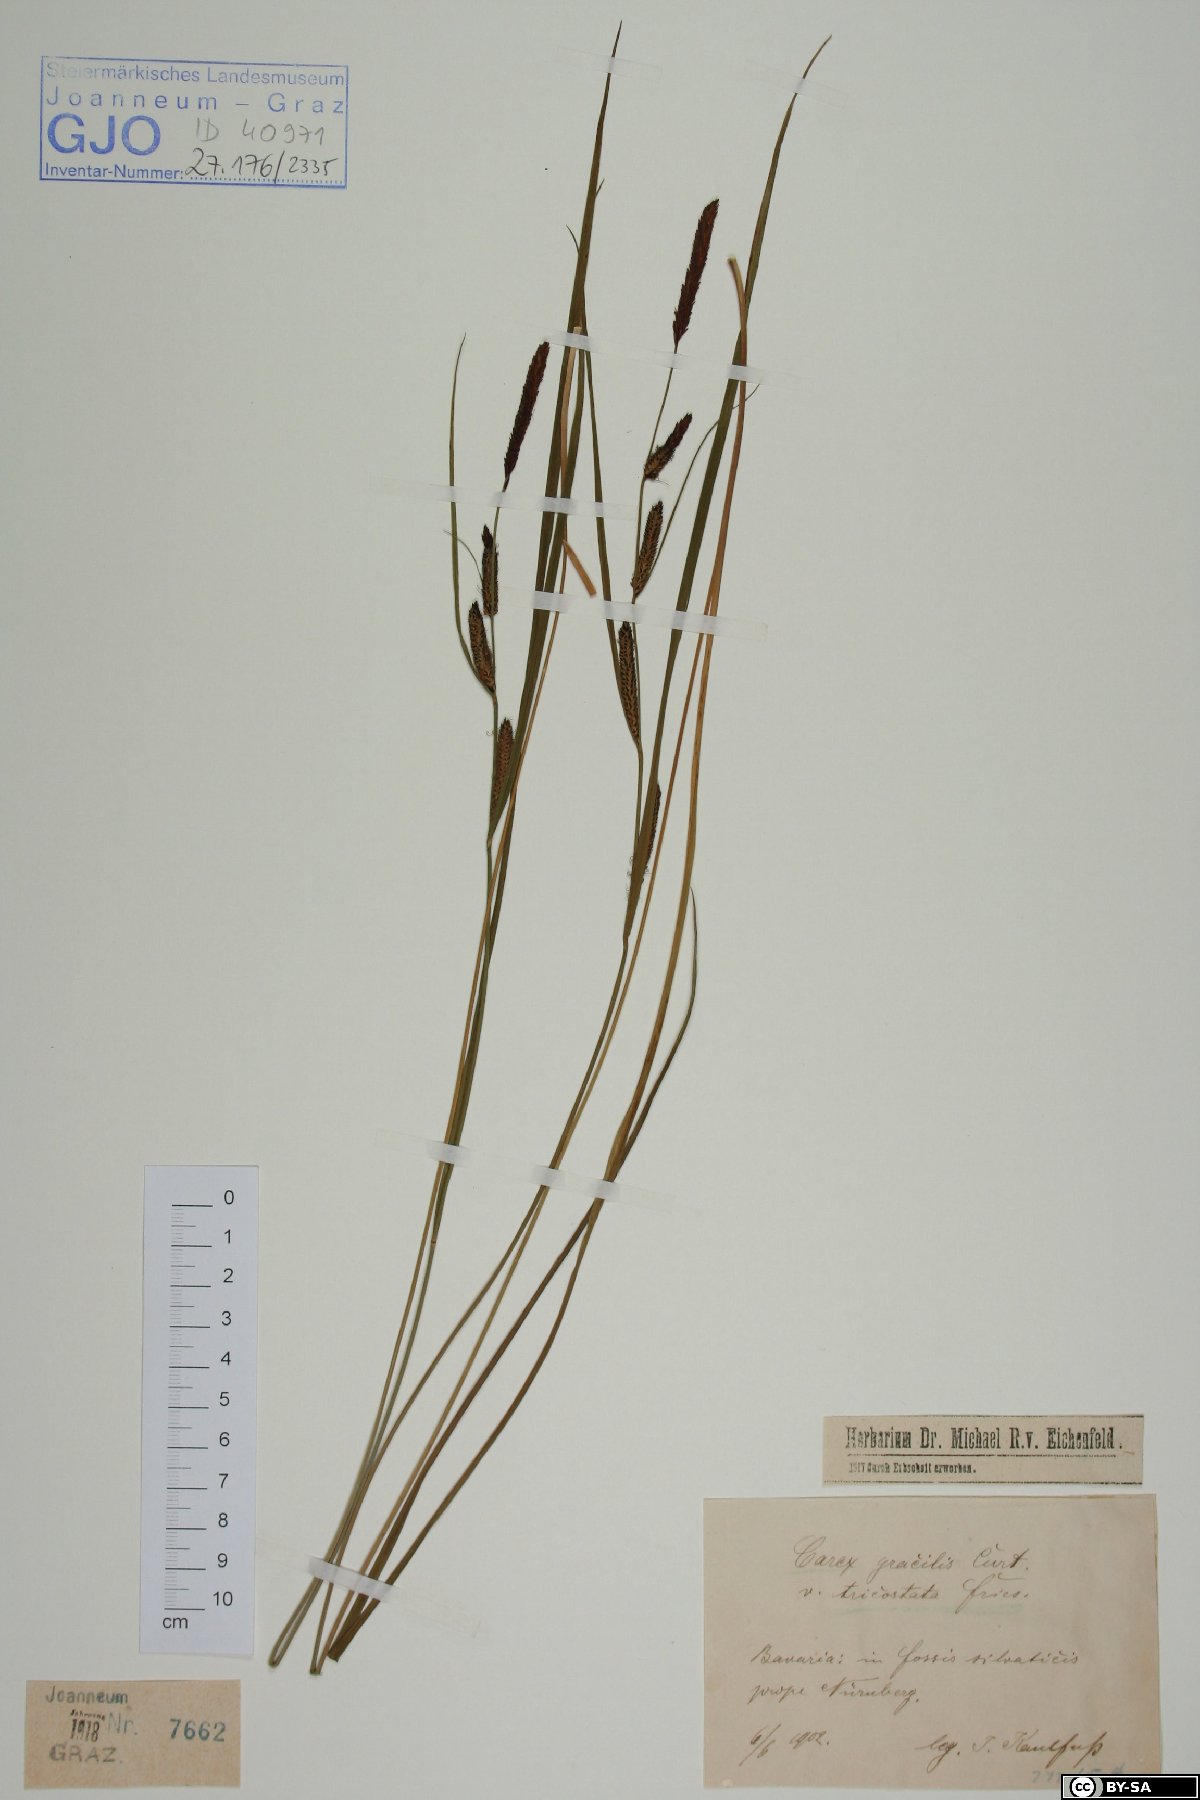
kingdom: Plantae
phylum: Tracheophyta
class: Liliopsida
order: Poales
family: Cyperaceae
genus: Carex
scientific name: Carex acuta
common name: Slender tufted-sedge
